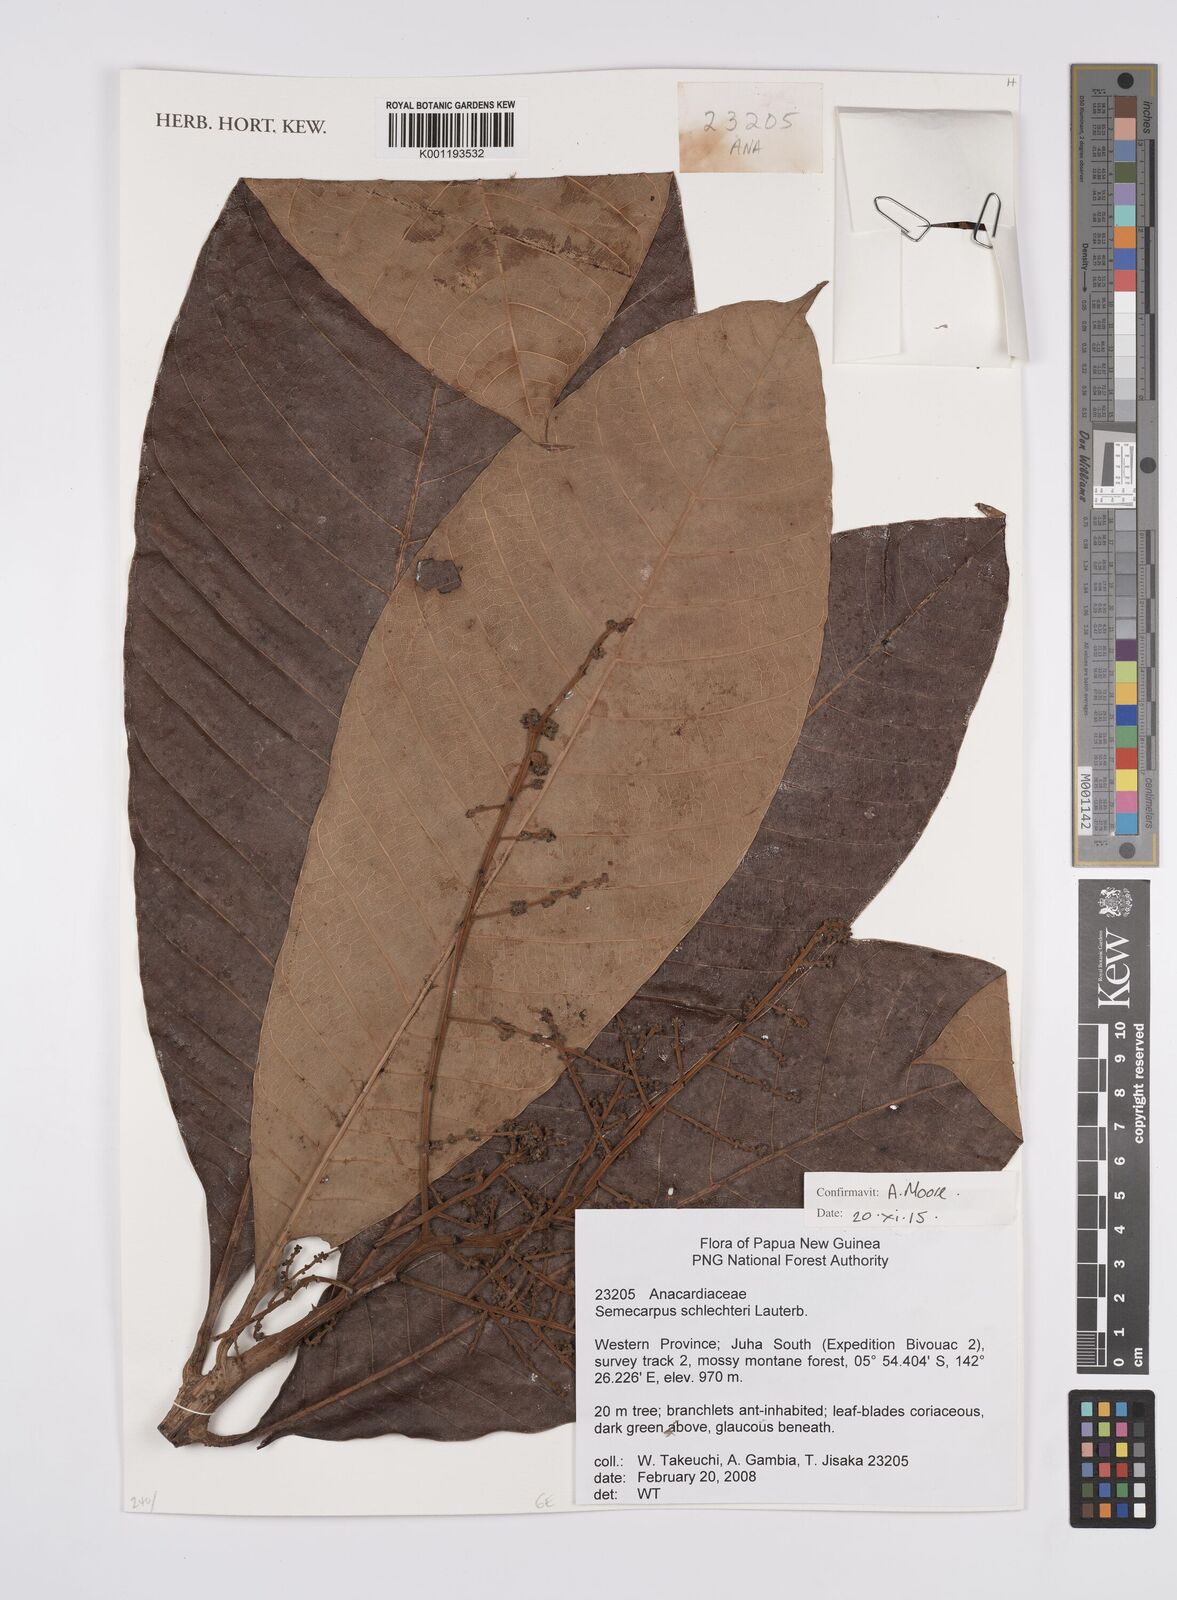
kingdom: Plantae
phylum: Tracheophyta
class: Magnoliopsida
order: Sapindales
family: Anacardiaceae
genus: Semecarpus
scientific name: Semecarpus
